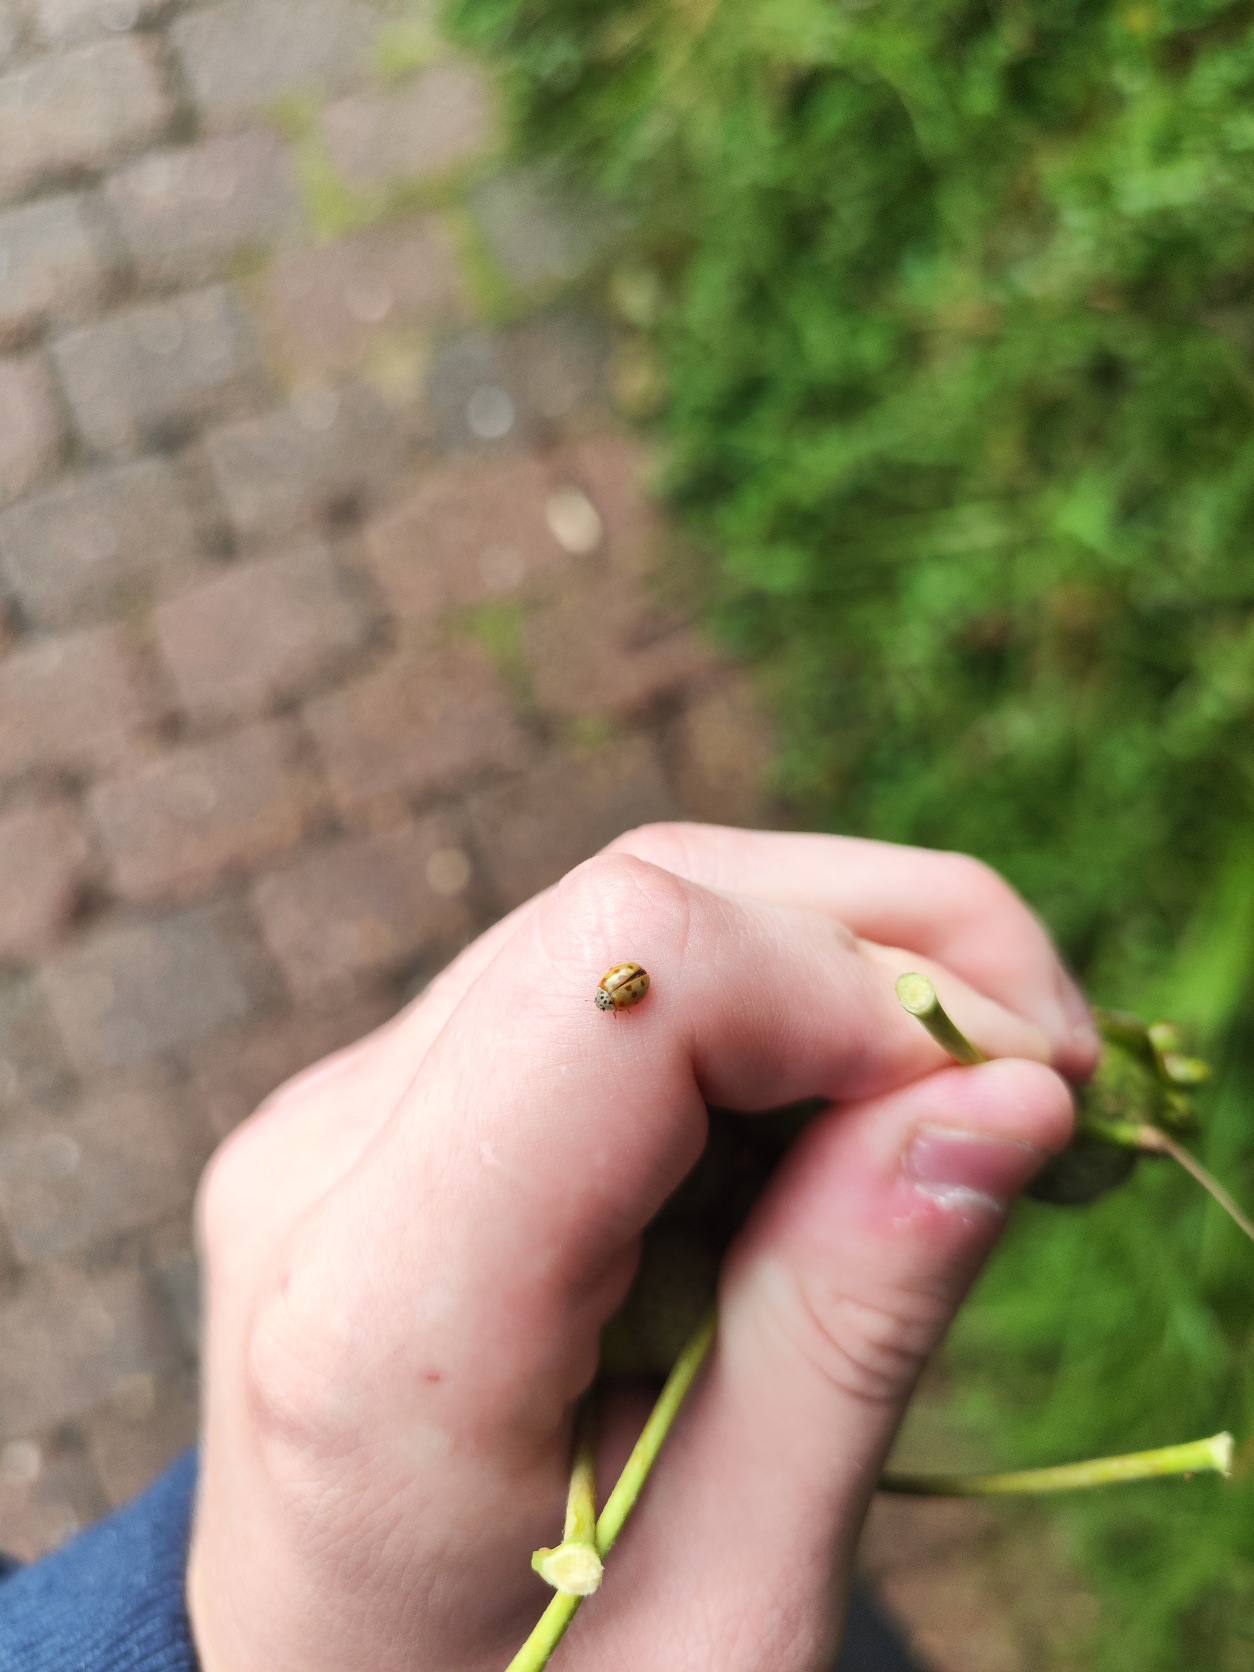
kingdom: Animalia
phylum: Arthropoda
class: Insecta
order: Coleoptera
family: Coccinellidae
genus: Adalia
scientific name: Adalia decempunctata
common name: Tiplettet mariehøne
